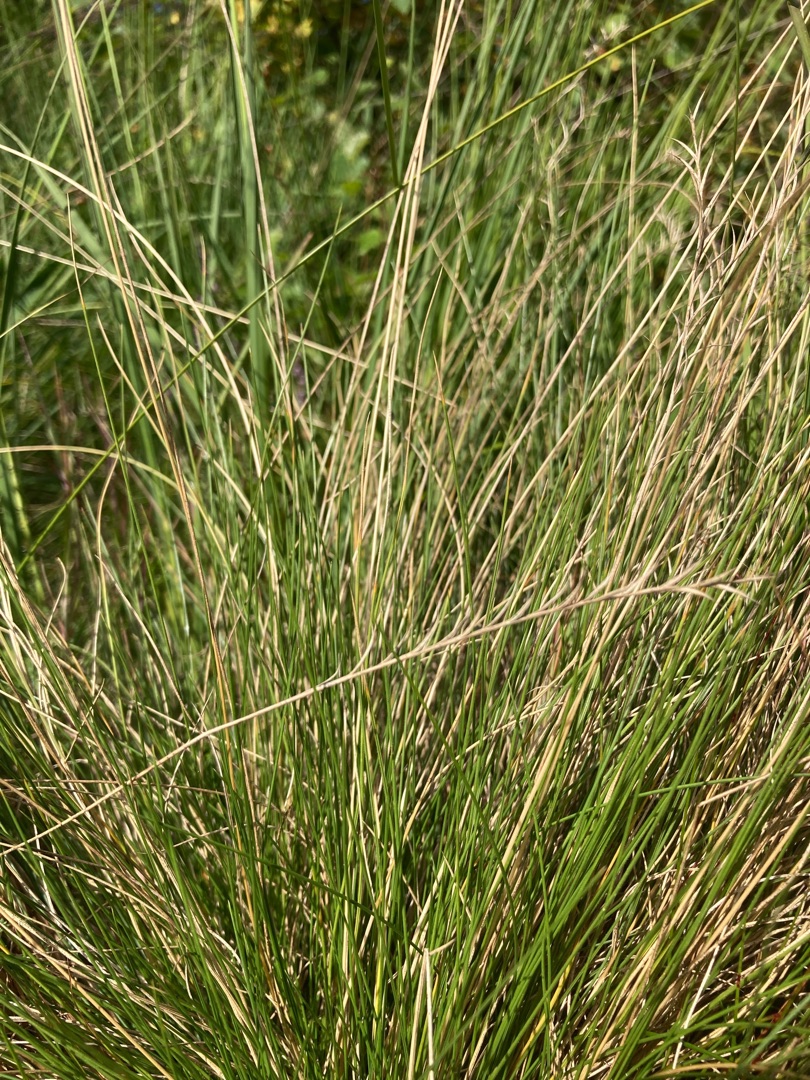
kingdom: Plantae
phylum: Tracheophyta
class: Liliopsida
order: Poales
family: Poaceae
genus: Nardus
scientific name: Nardus stricta
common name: Katteskæg
